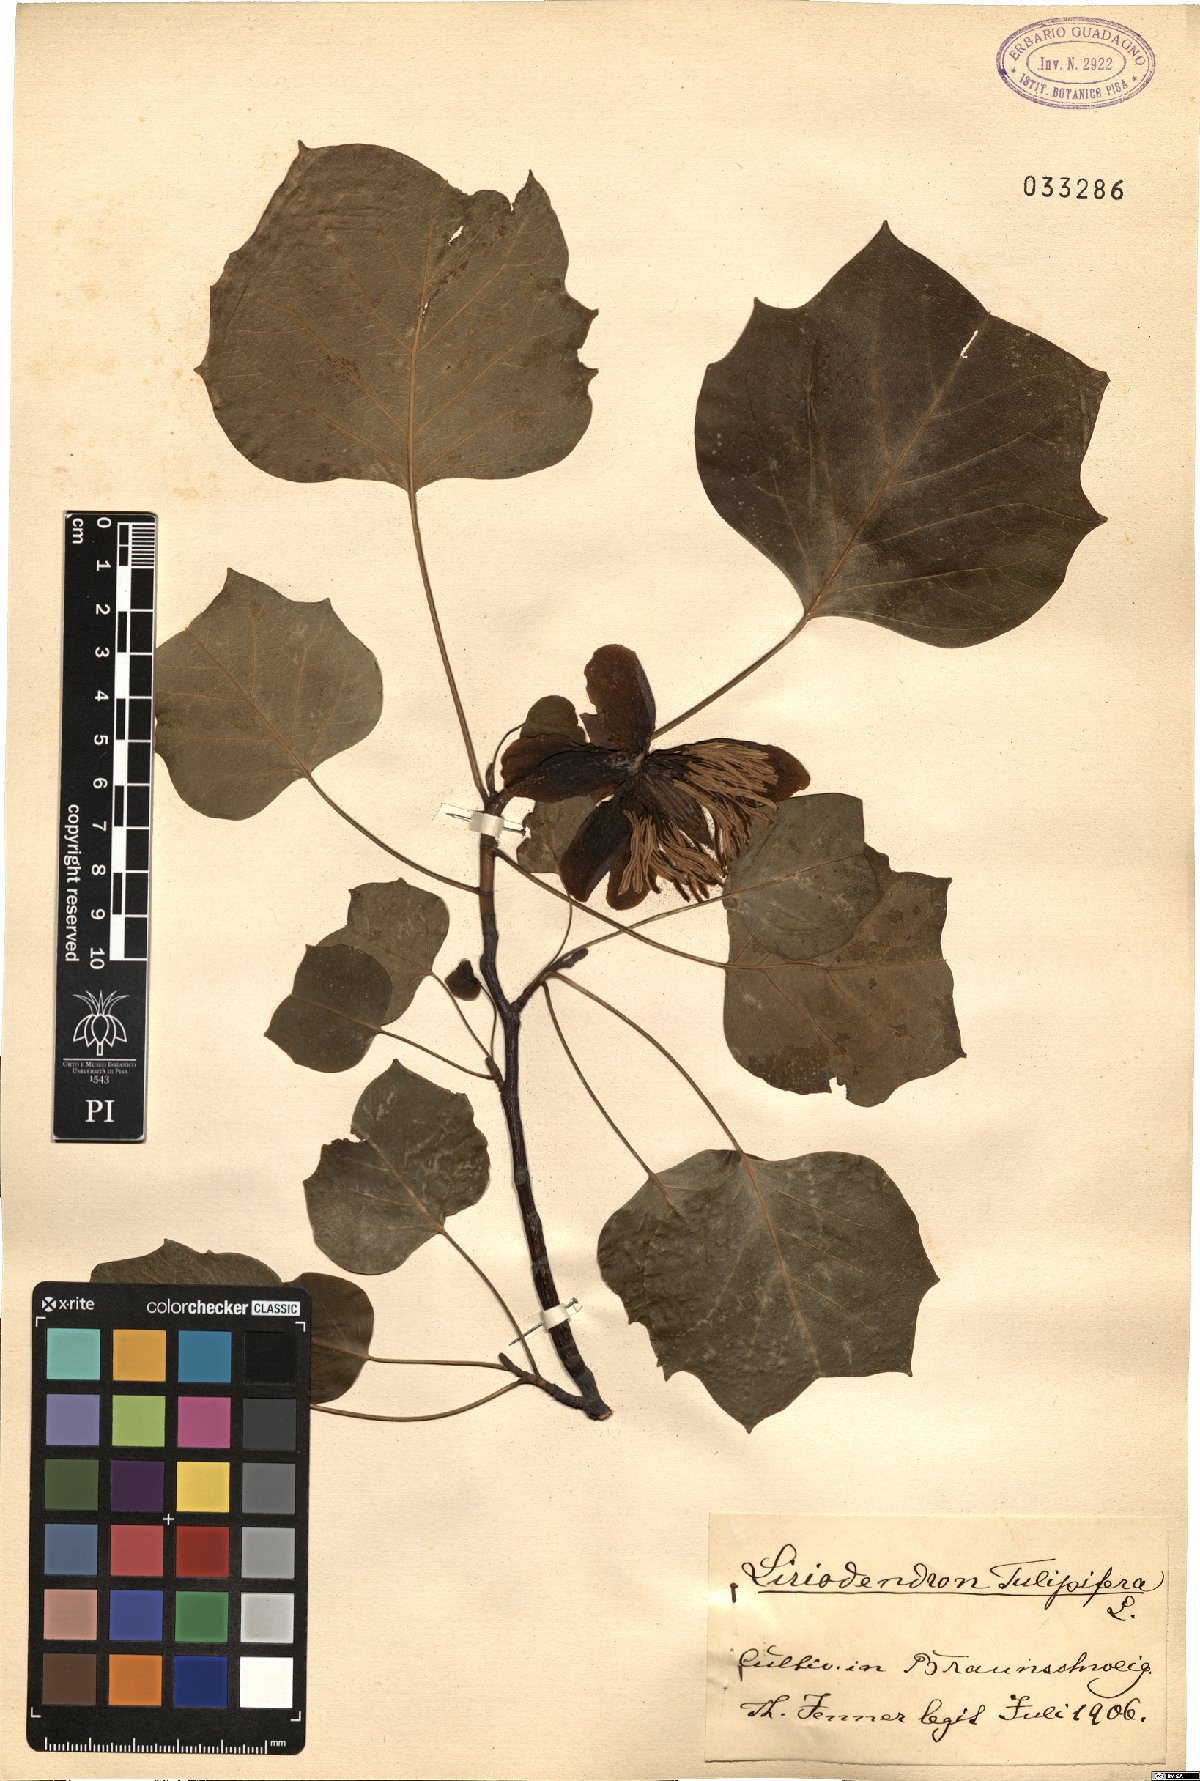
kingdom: Plantae
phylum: Tracheophyta
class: Magnoliopsida
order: Magnoliales
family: Magnoliaceae
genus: Liriodendron
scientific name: Liriodendron tulipifera
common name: Tulip tree
